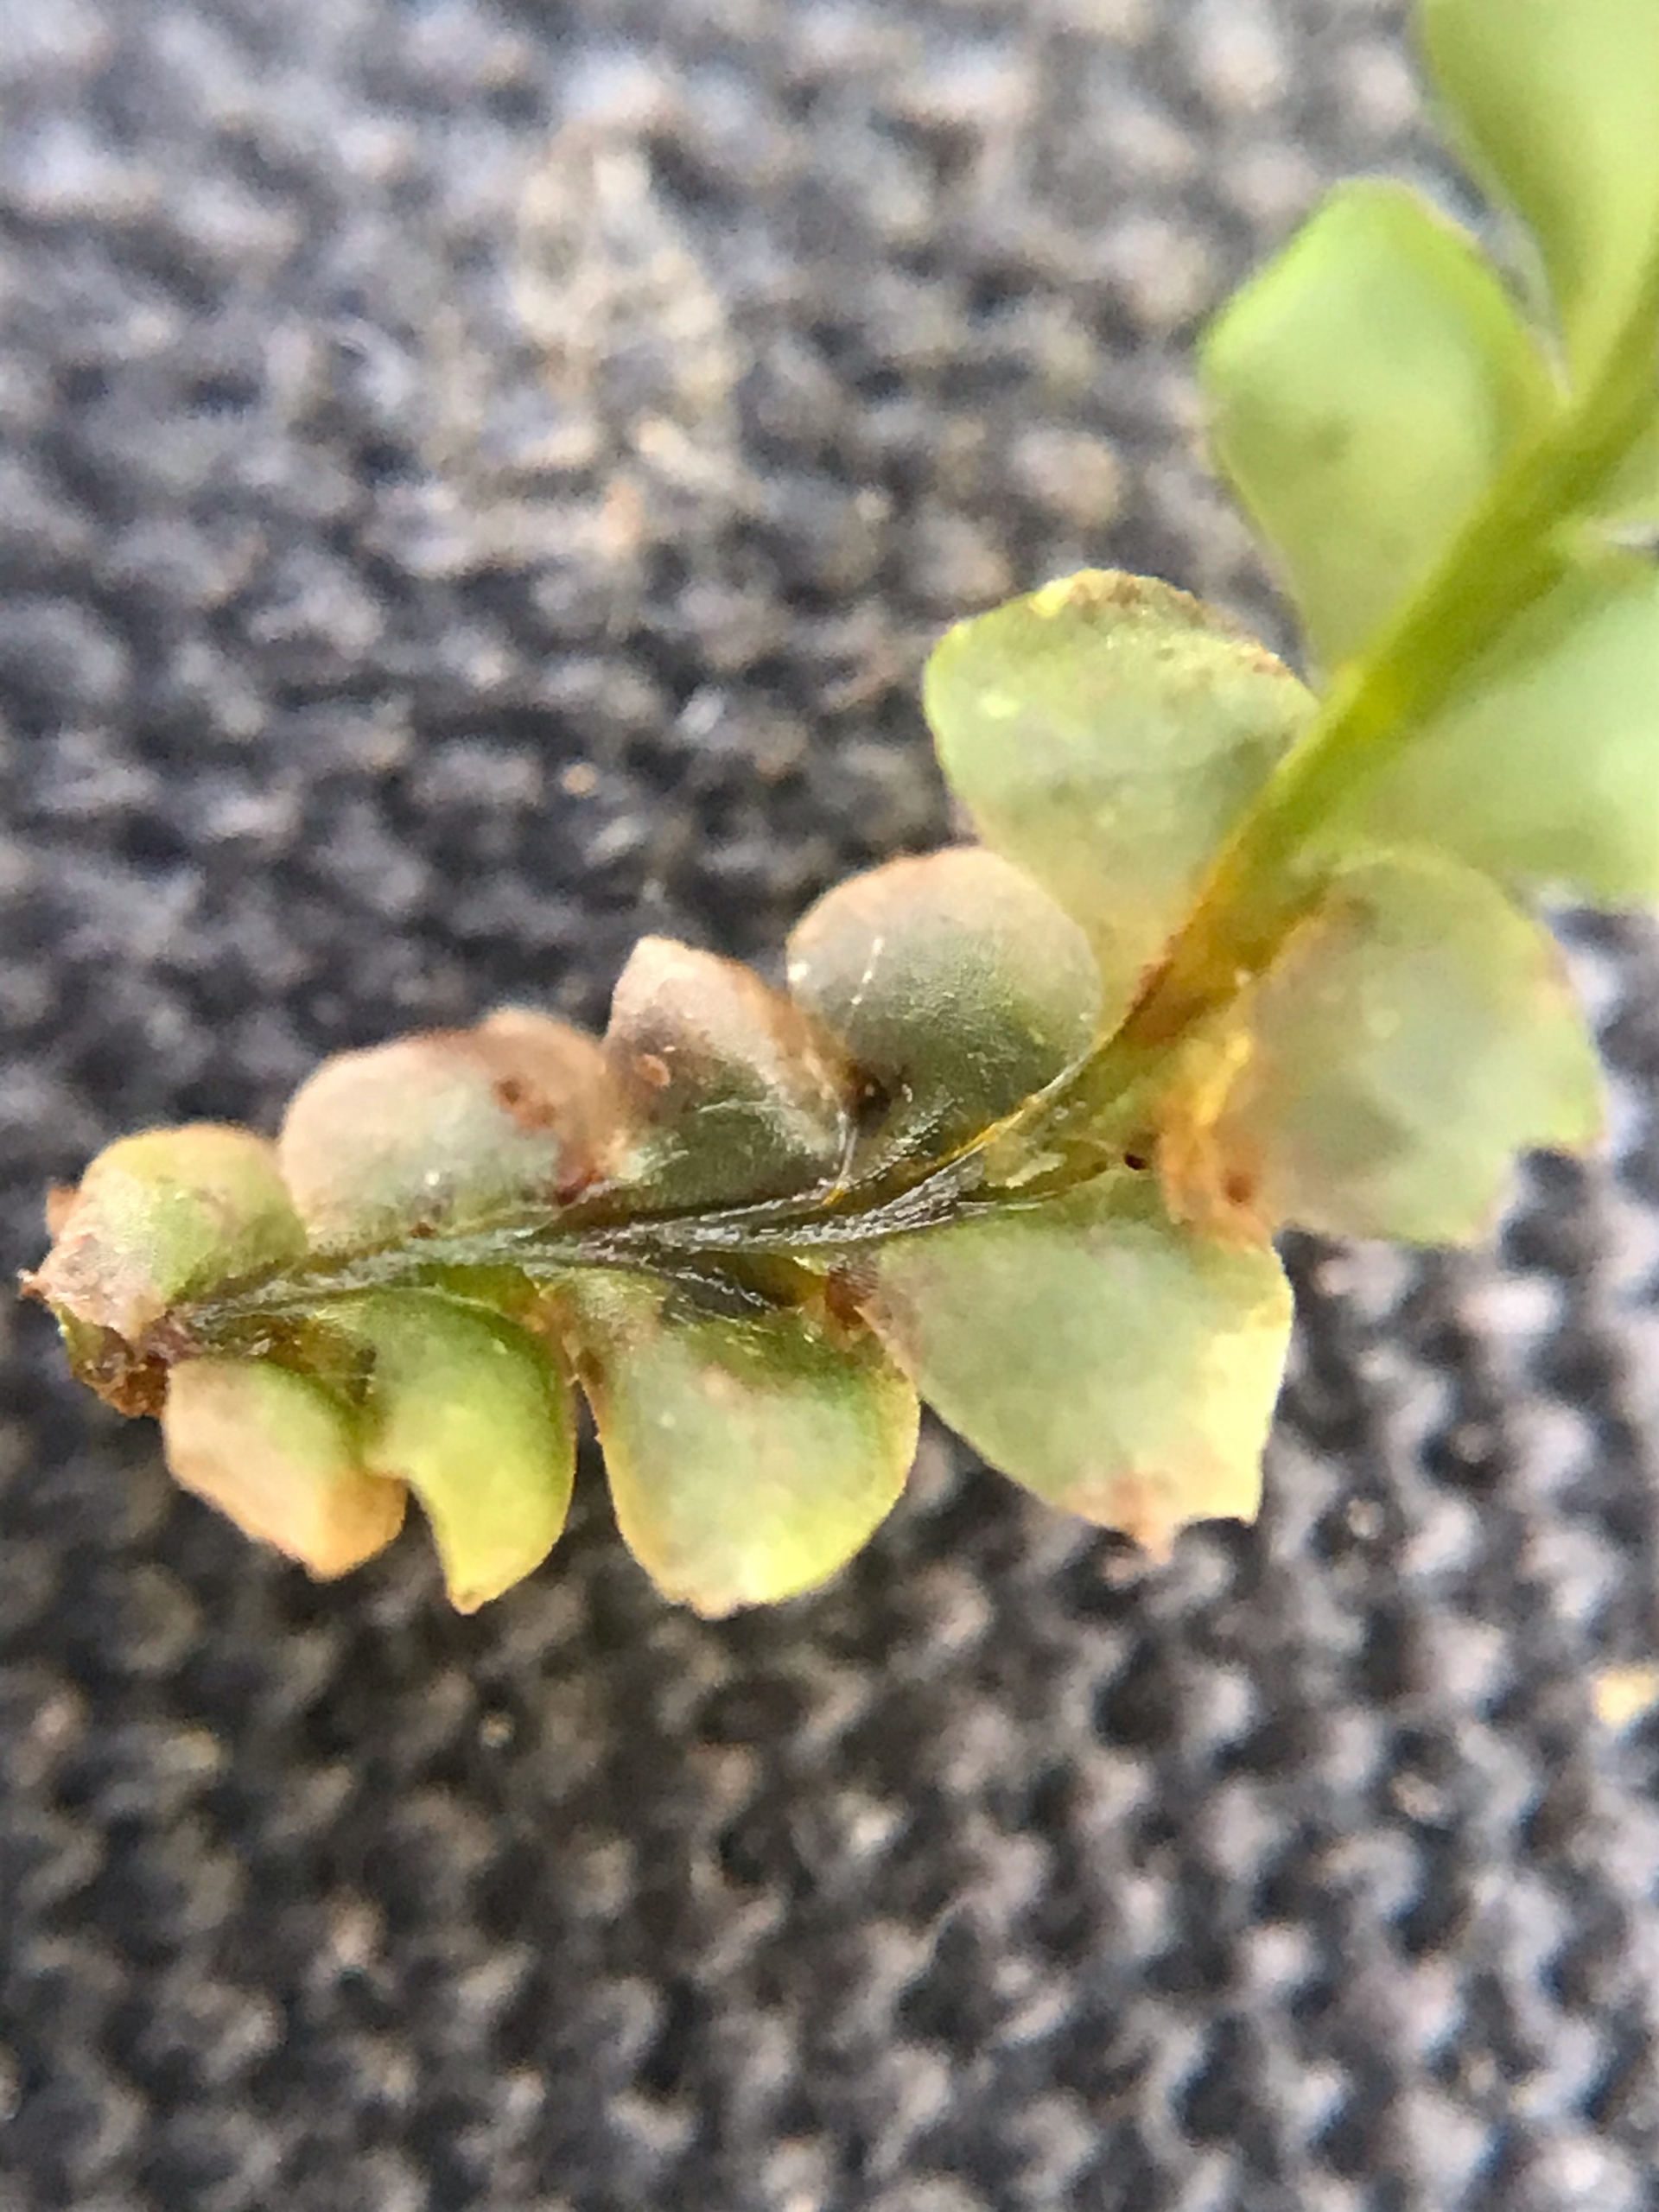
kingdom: Plantae
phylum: Marchantiophyta
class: Jungermanniopsida
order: Jungermanniales
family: Lophocoleaceae
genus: Lophocolea
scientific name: Lophocolea bidentata
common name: Sylspidset kamsvøb
